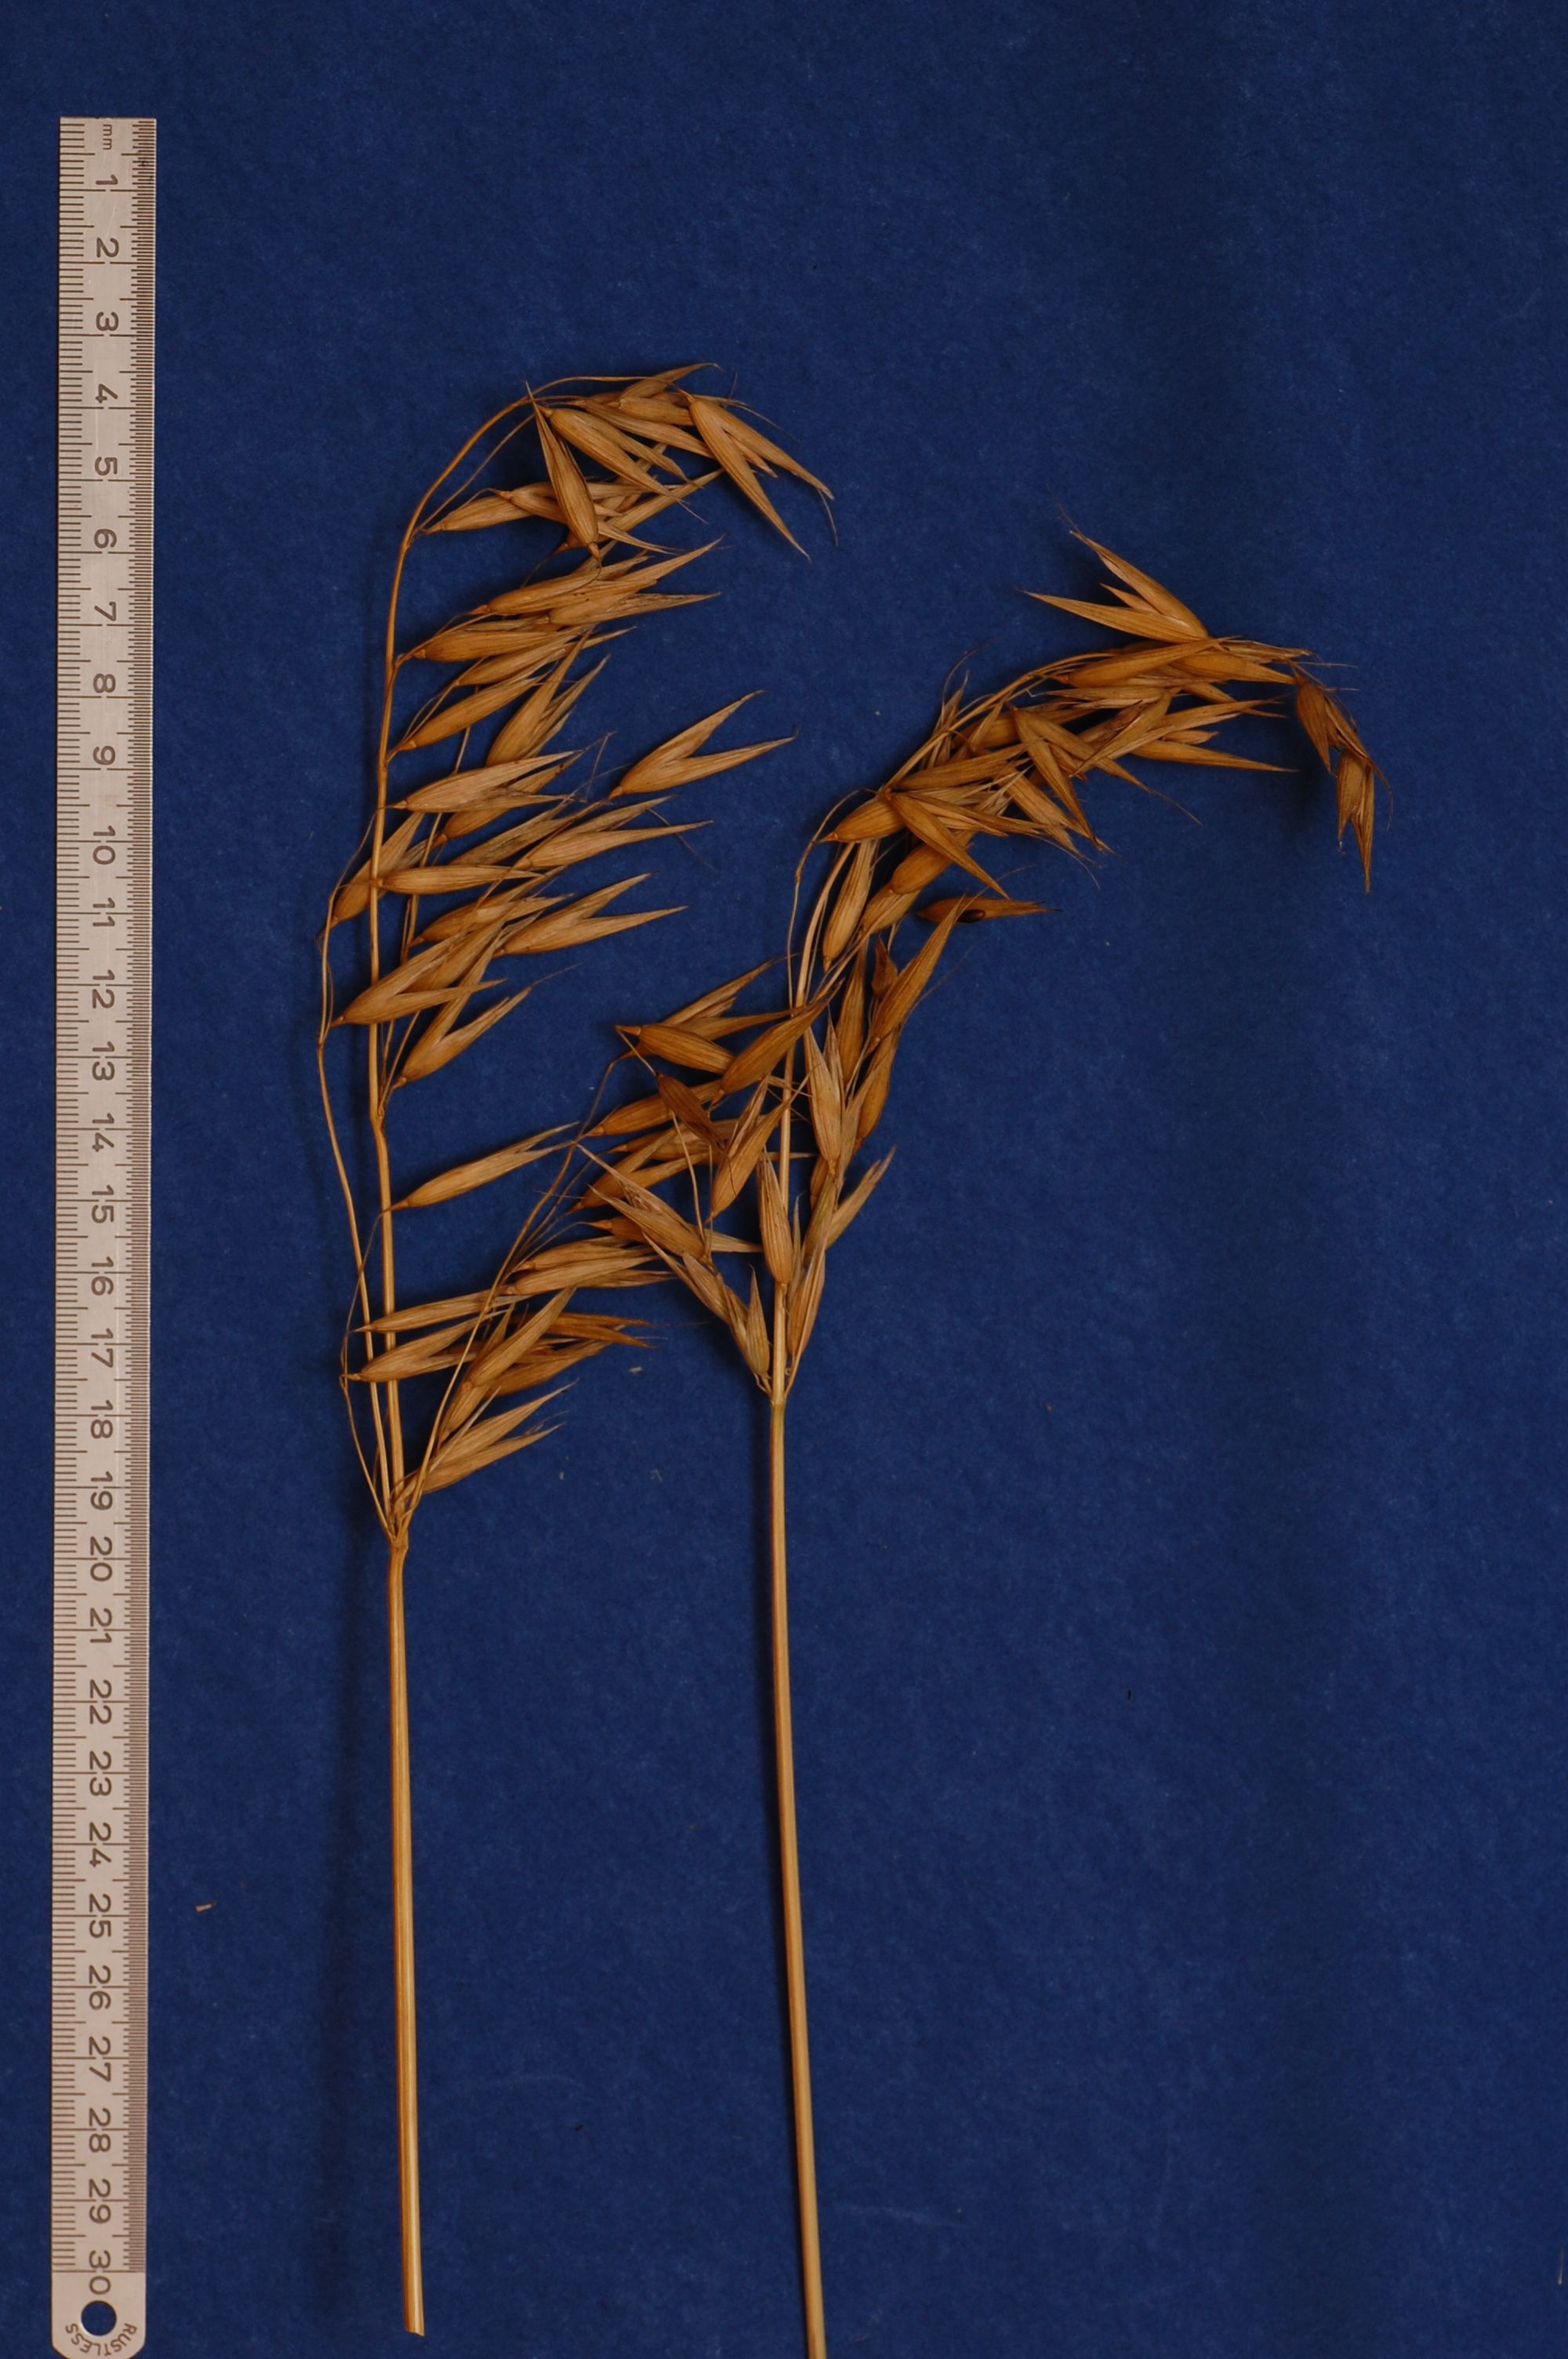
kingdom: Plantae
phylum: Tracheophyta
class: Liliopsida
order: Poales
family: Poaceae
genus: Avena
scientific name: Avena strigosa
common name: Bristle oat
